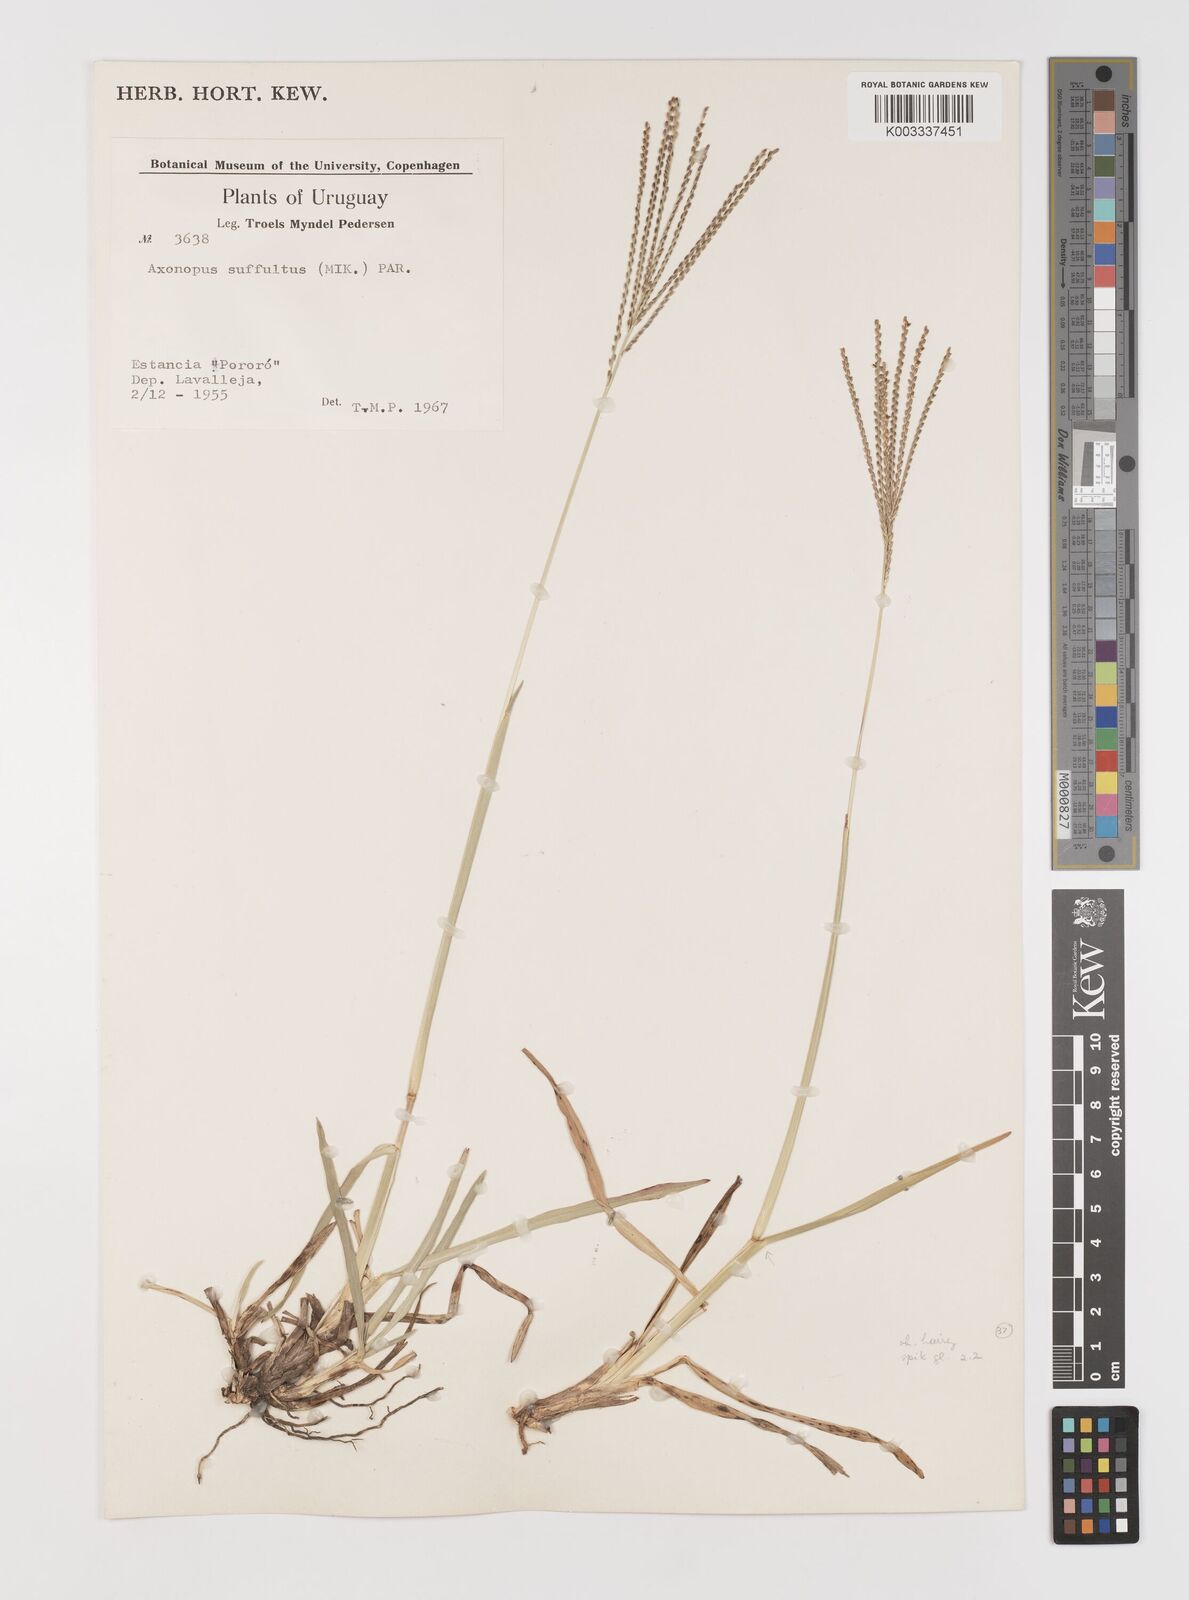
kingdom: Plantae
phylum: Tracheophyta
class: Liliopsida
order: Poales
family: Poaceae
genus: Axonopus
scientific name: Axonopus argentinus
